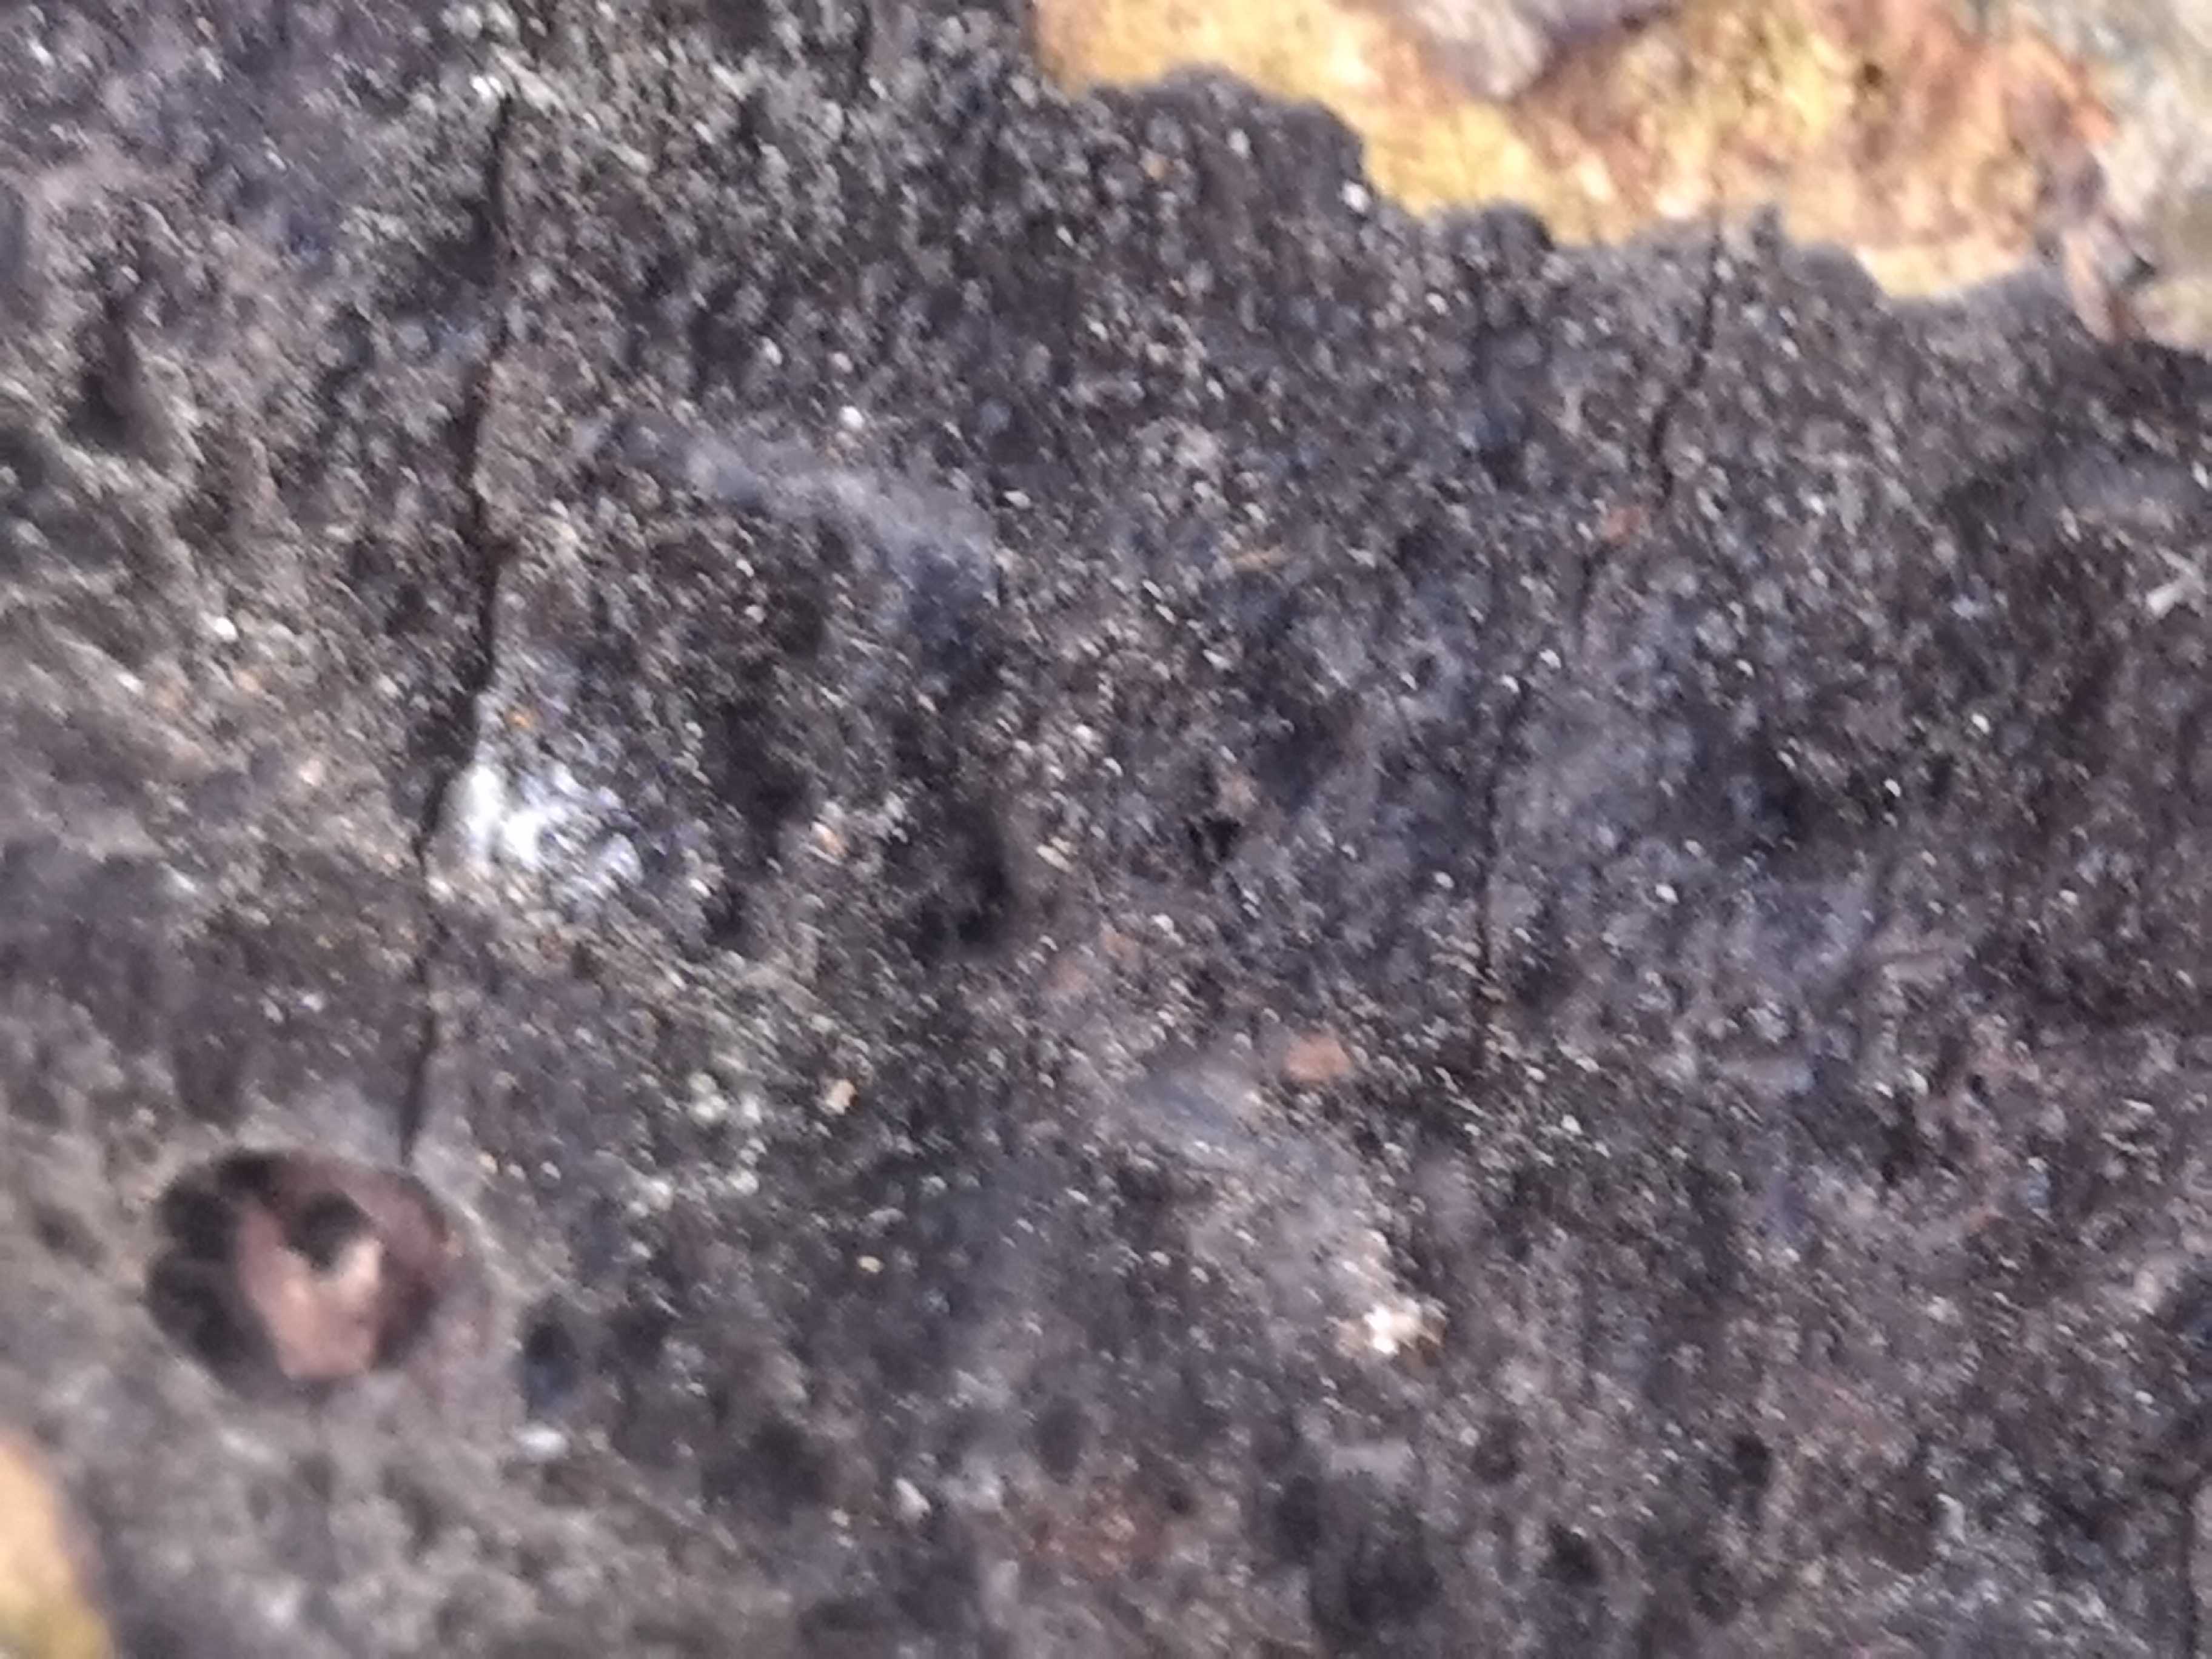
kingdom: Fungi
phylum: Ascomycota
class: Sordariomycetes
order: Xylariales
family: Diatrypaceae
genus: Eutypa
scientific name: Eutypa spinosa
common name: grov kulskorpe
